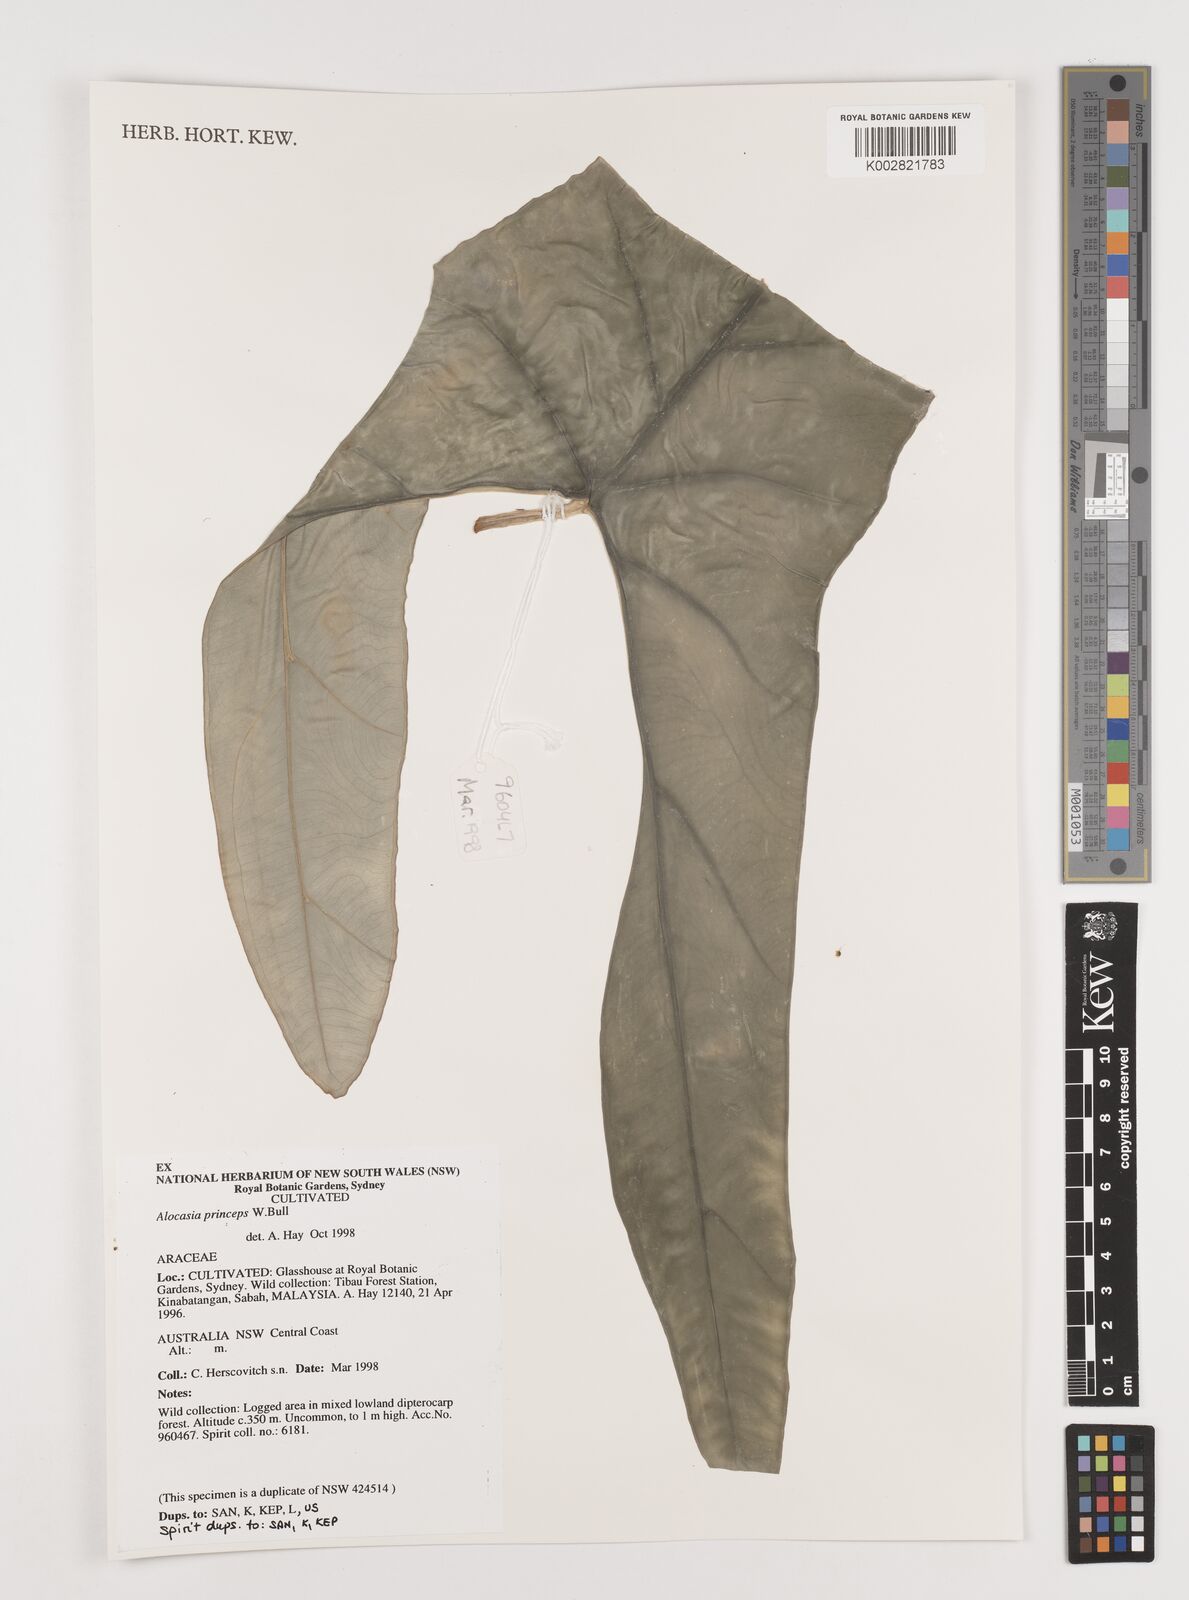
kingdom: Plantae
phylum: Tracheophyta
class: Liliopsida
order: Alismatales
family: Araceae
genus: Alocasia
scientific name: Alocasia
